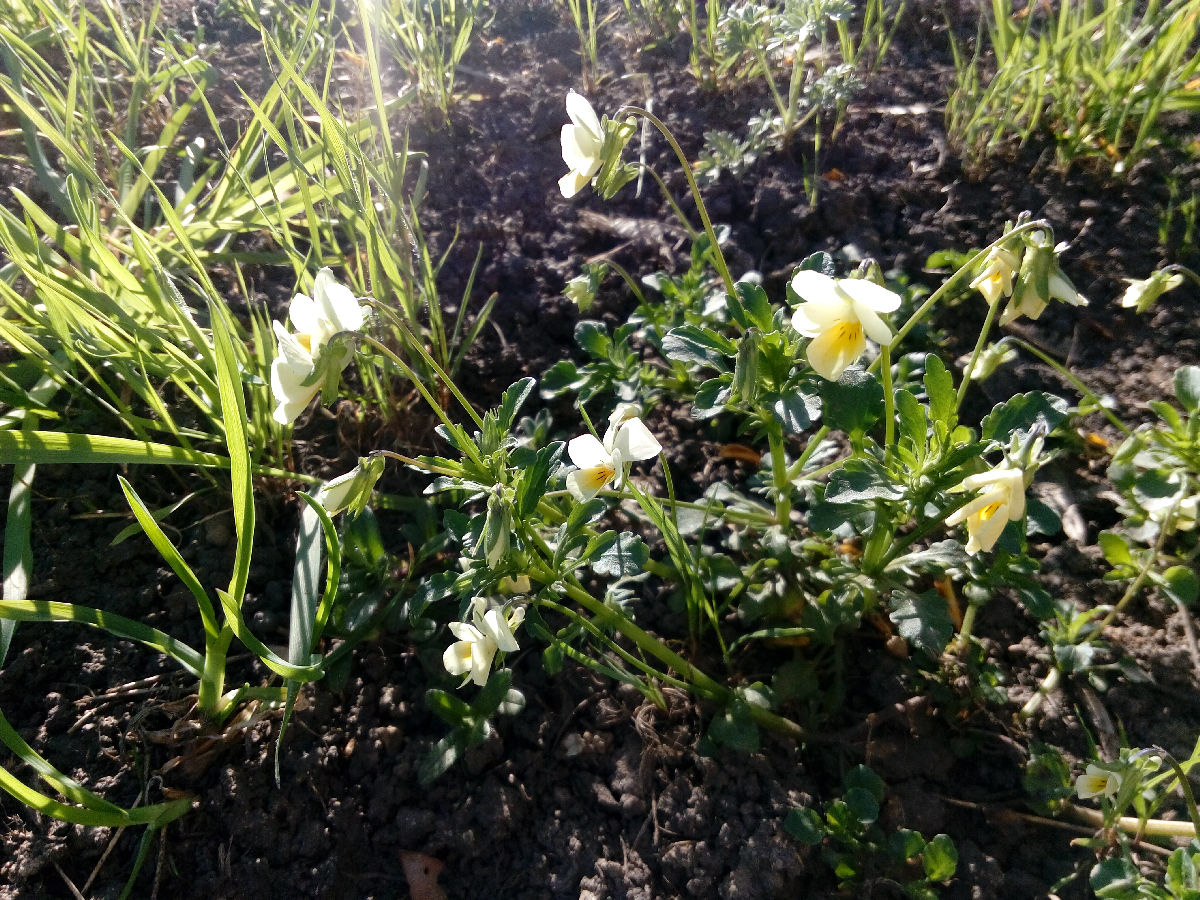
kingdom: Plantae
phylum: Tracheophyta
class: Magnoliopsida
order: Malpighiales
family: Violaceae
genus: Viola
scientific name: Viola arvensis
